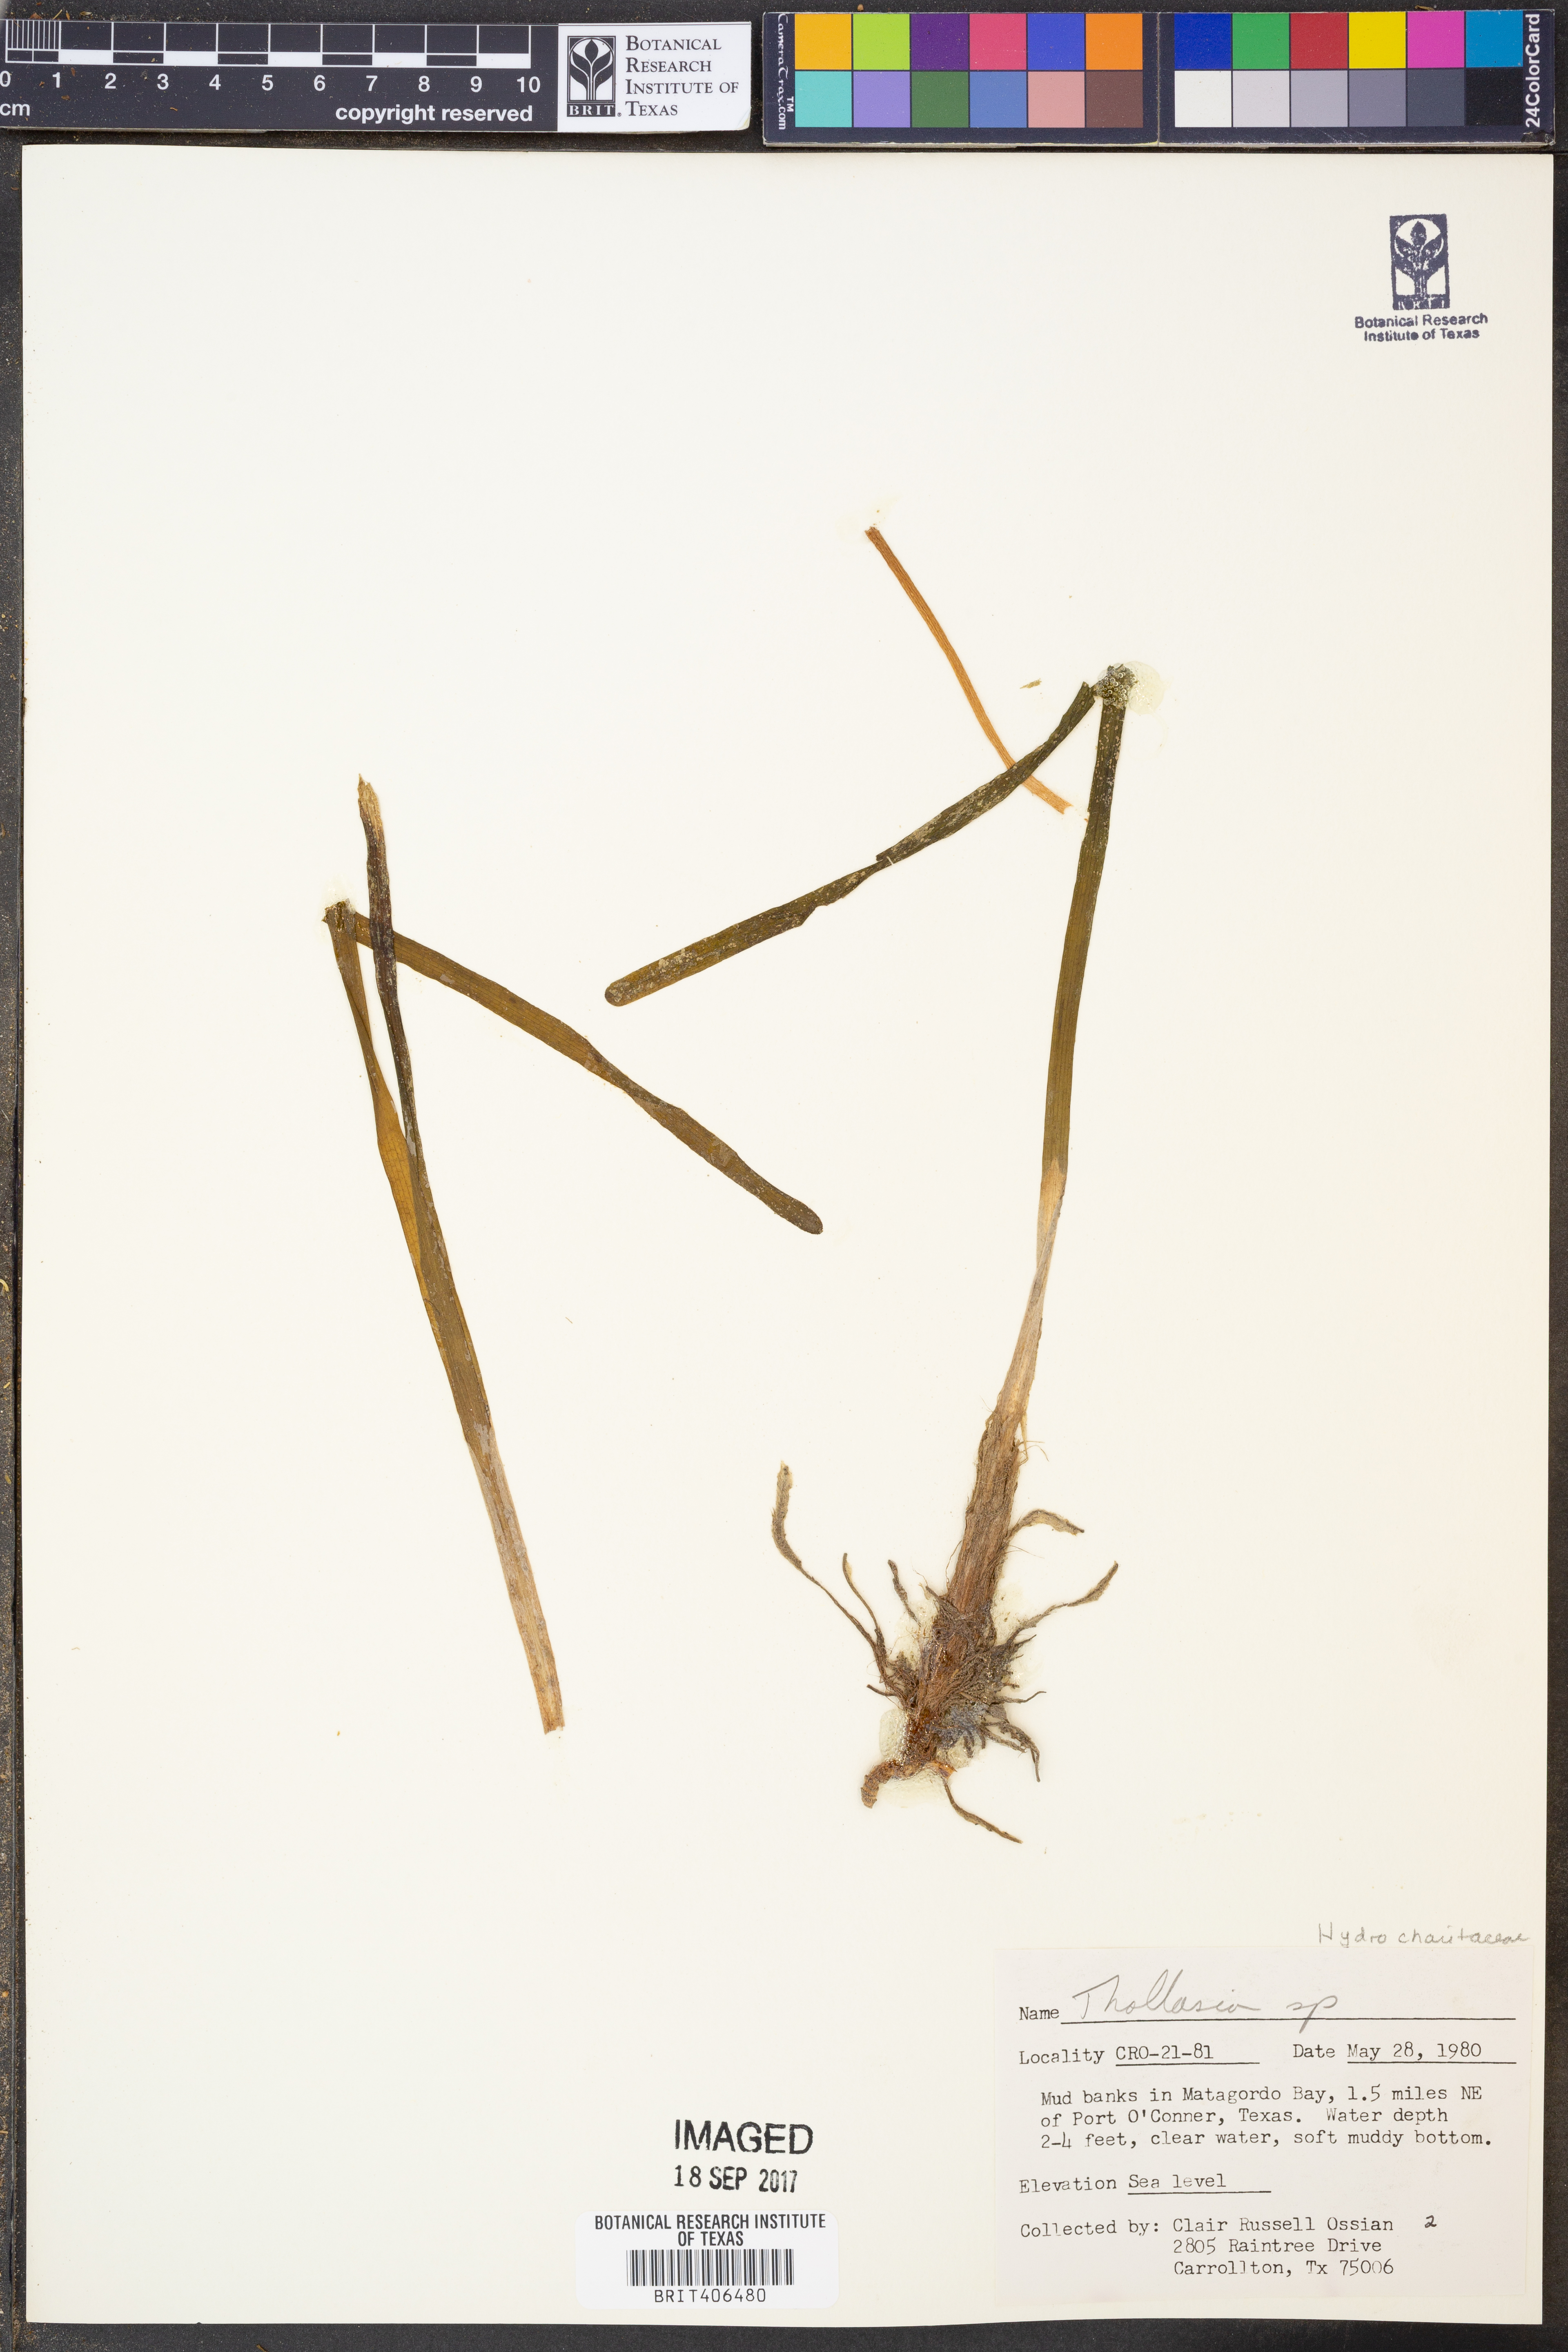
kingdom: Plantae
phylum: Tracheophyta
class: Liliopsida
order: Alismatales
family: Hydrocharitaceae
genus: Thalassia
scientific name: Thalassia
